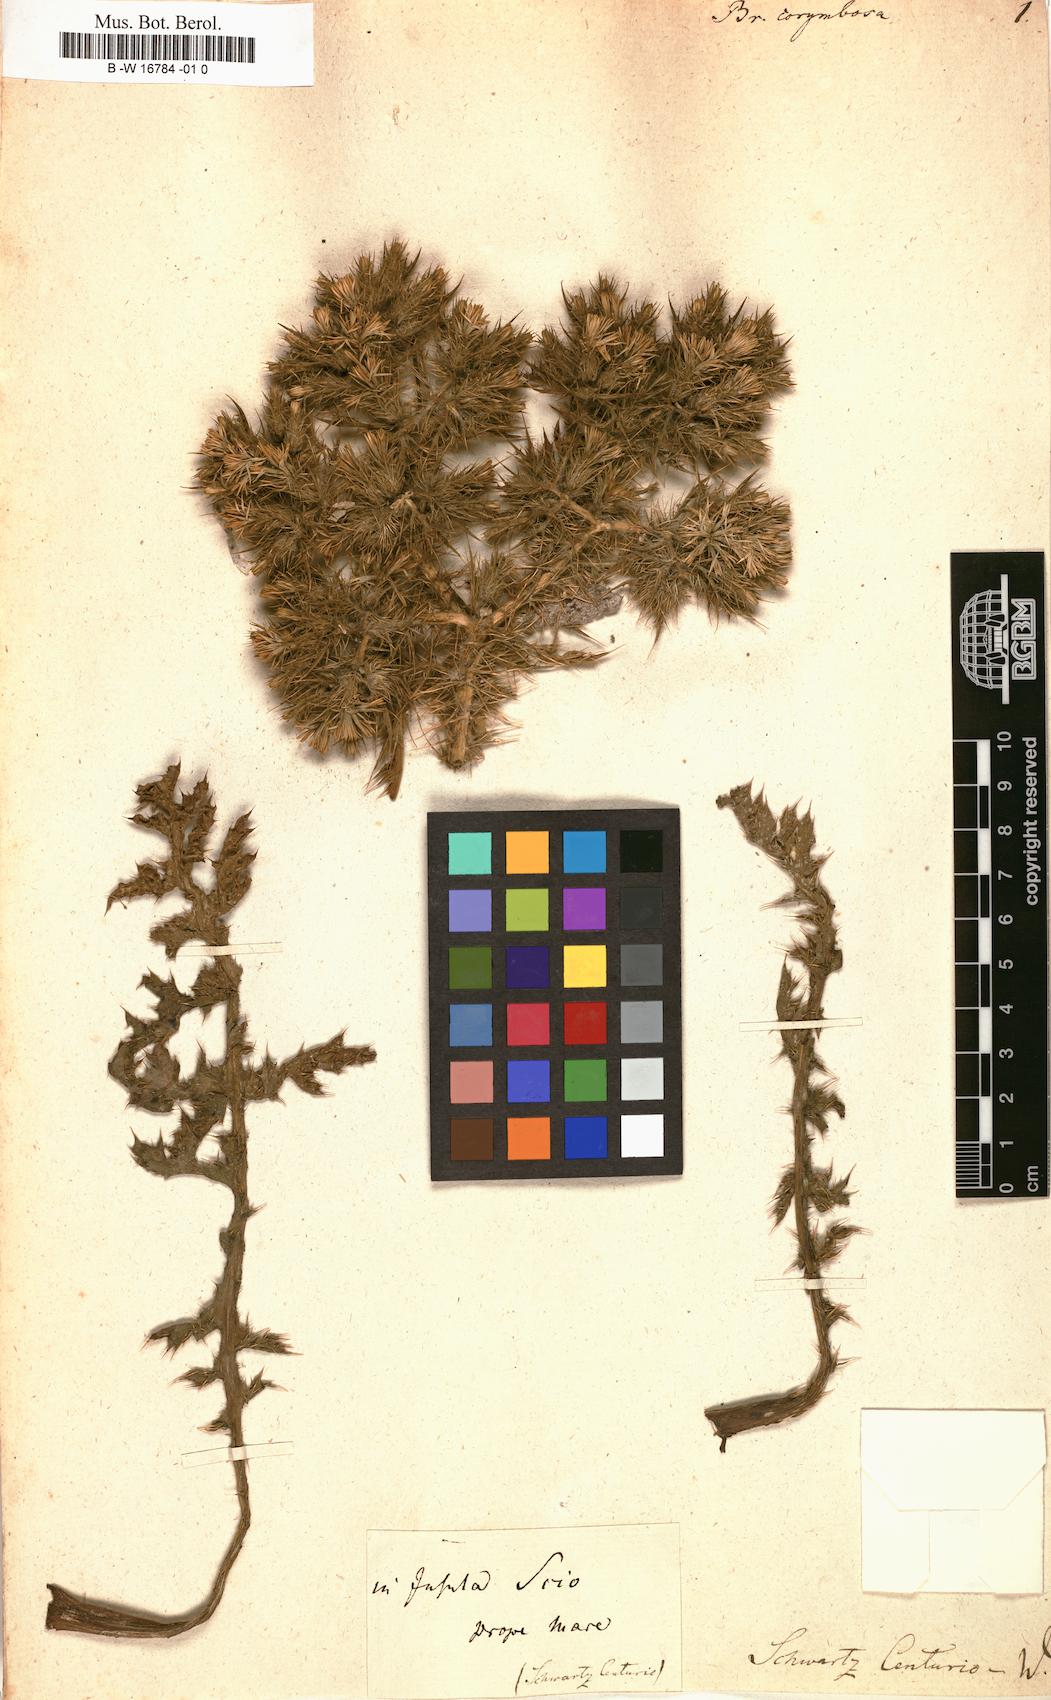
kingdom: Plantae
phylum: Tracheophyta
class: Magnoliopsida
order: Asterales
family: Asteraceae
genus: Cardopatium
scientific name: Cardopatium corymbosum
